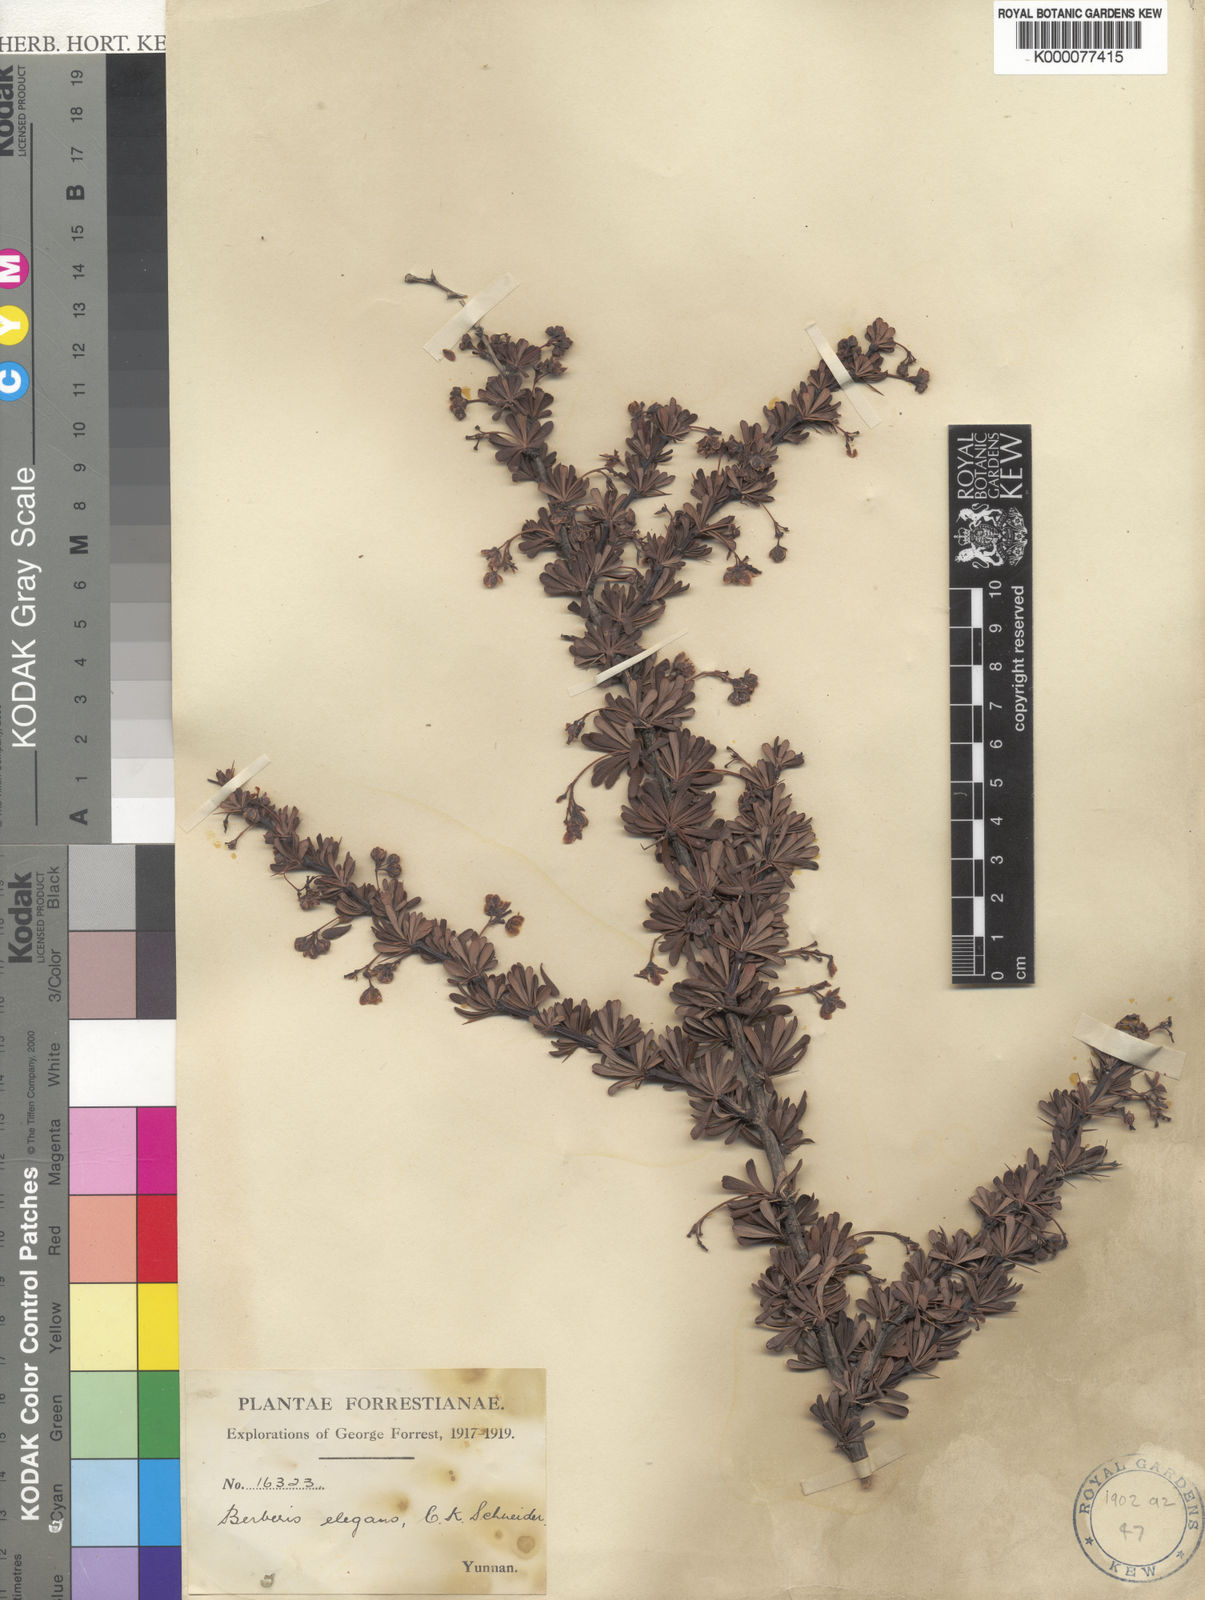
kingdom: Plantae
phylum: Tracheophyta
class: Magnoliopsida
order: Ranunculales
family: Berberidaceae
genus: Berberis
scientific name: Berberis amoena
